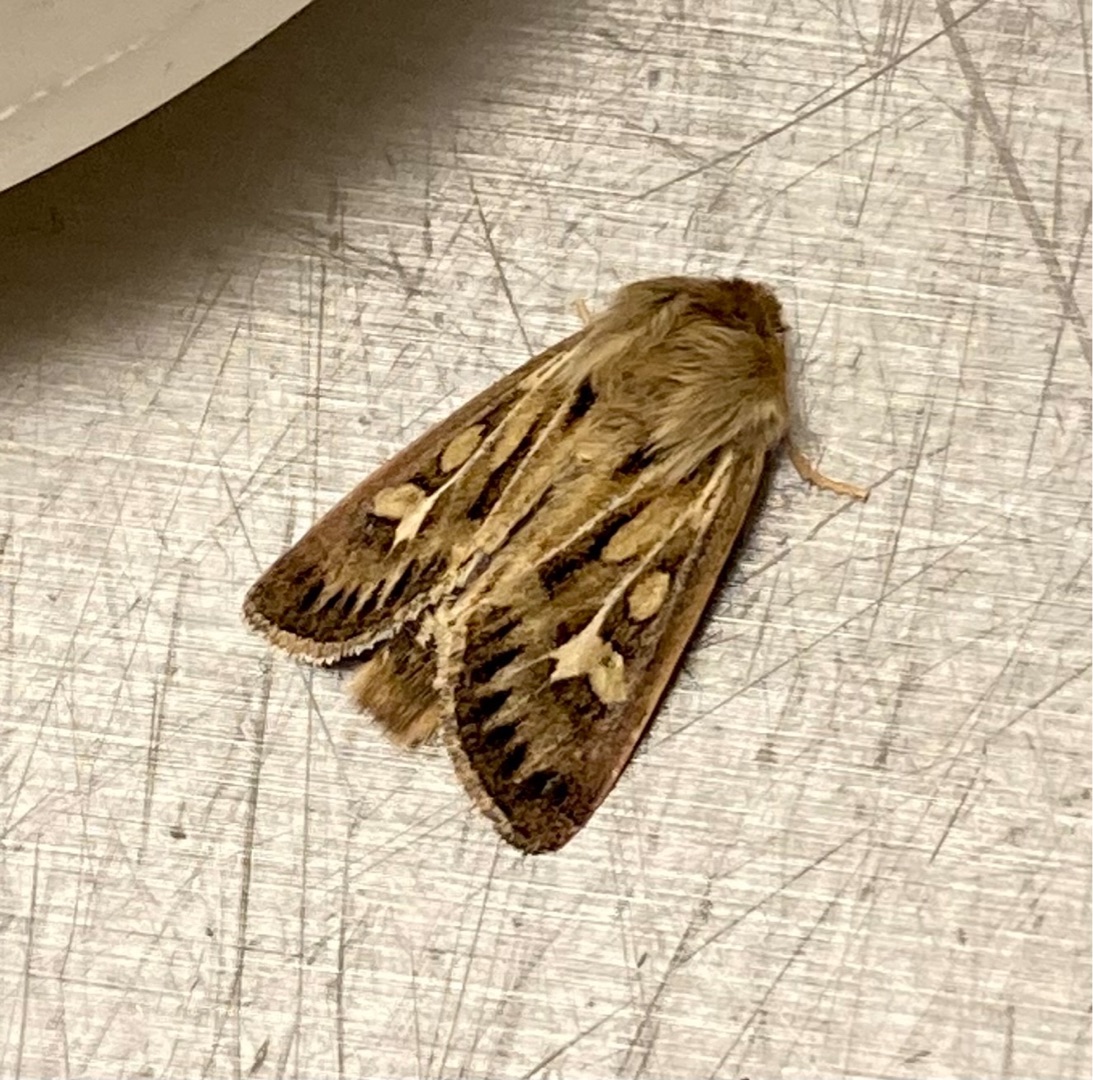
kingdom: Animalia
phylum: Arthropoda
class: Insecta
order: Lepidoptera
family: Noctuidae
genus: Cerapteryx
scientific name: Cerapteryx graminis
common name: Mosebunkeugle
